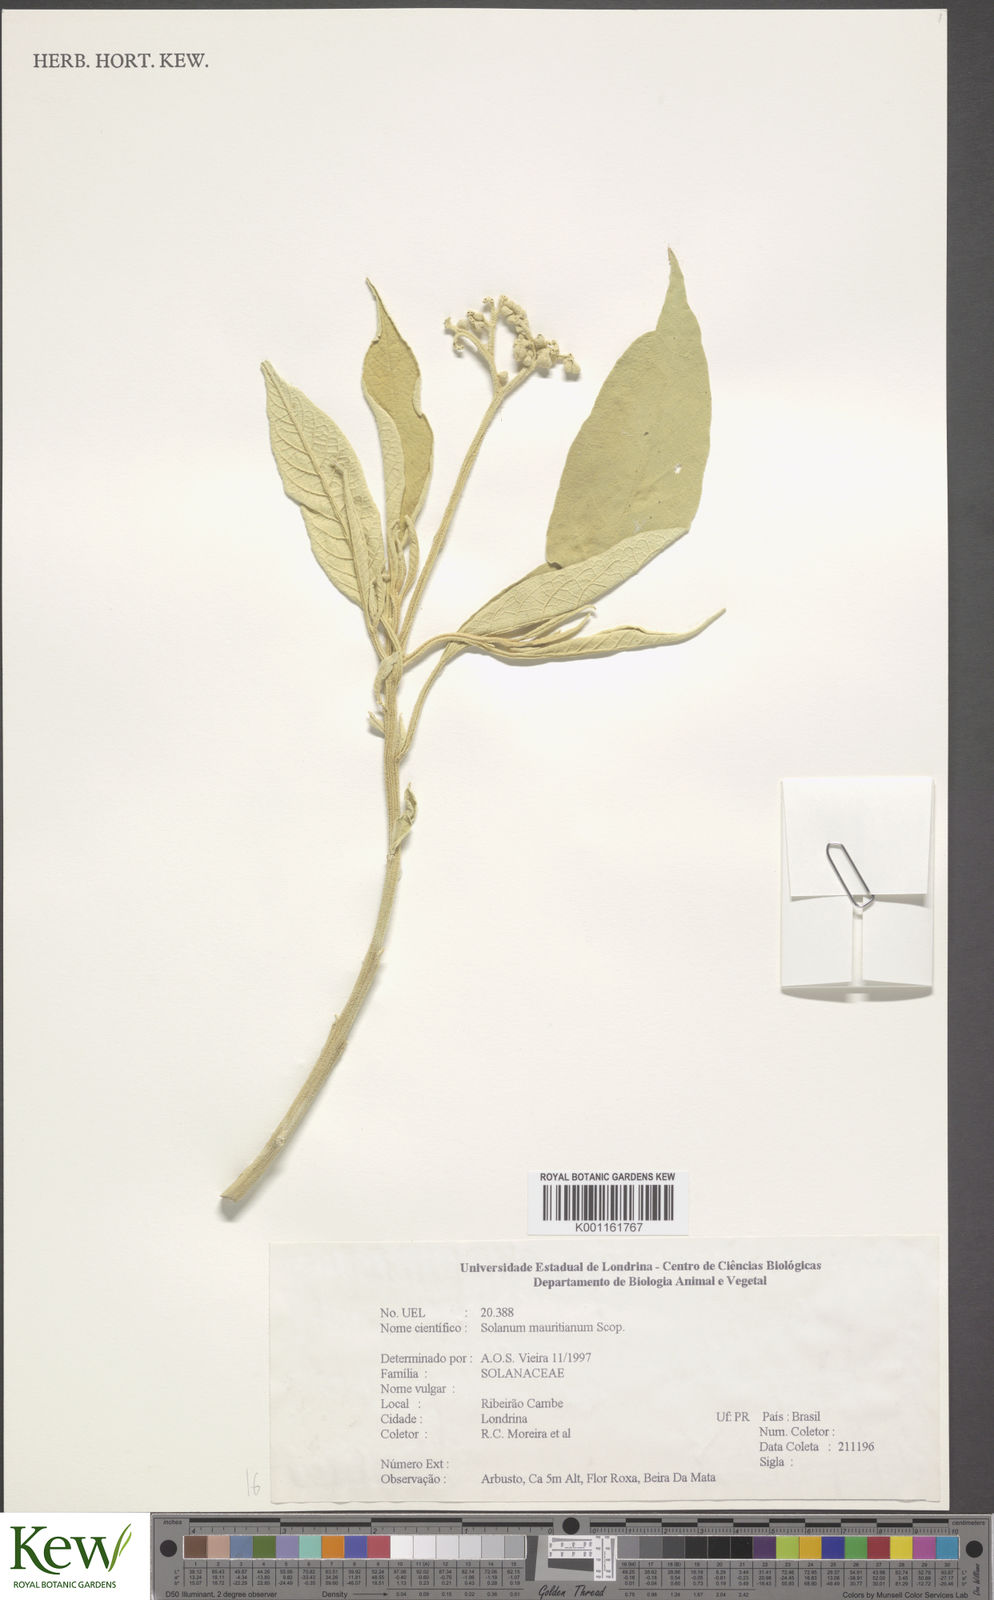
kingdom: Plantae
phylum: Tracheophyta
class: Magnoliopsida
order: Solanales
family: Solanaceae
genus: Solanum
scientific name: Solanum mauritianum
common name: Earleaf nightshade
